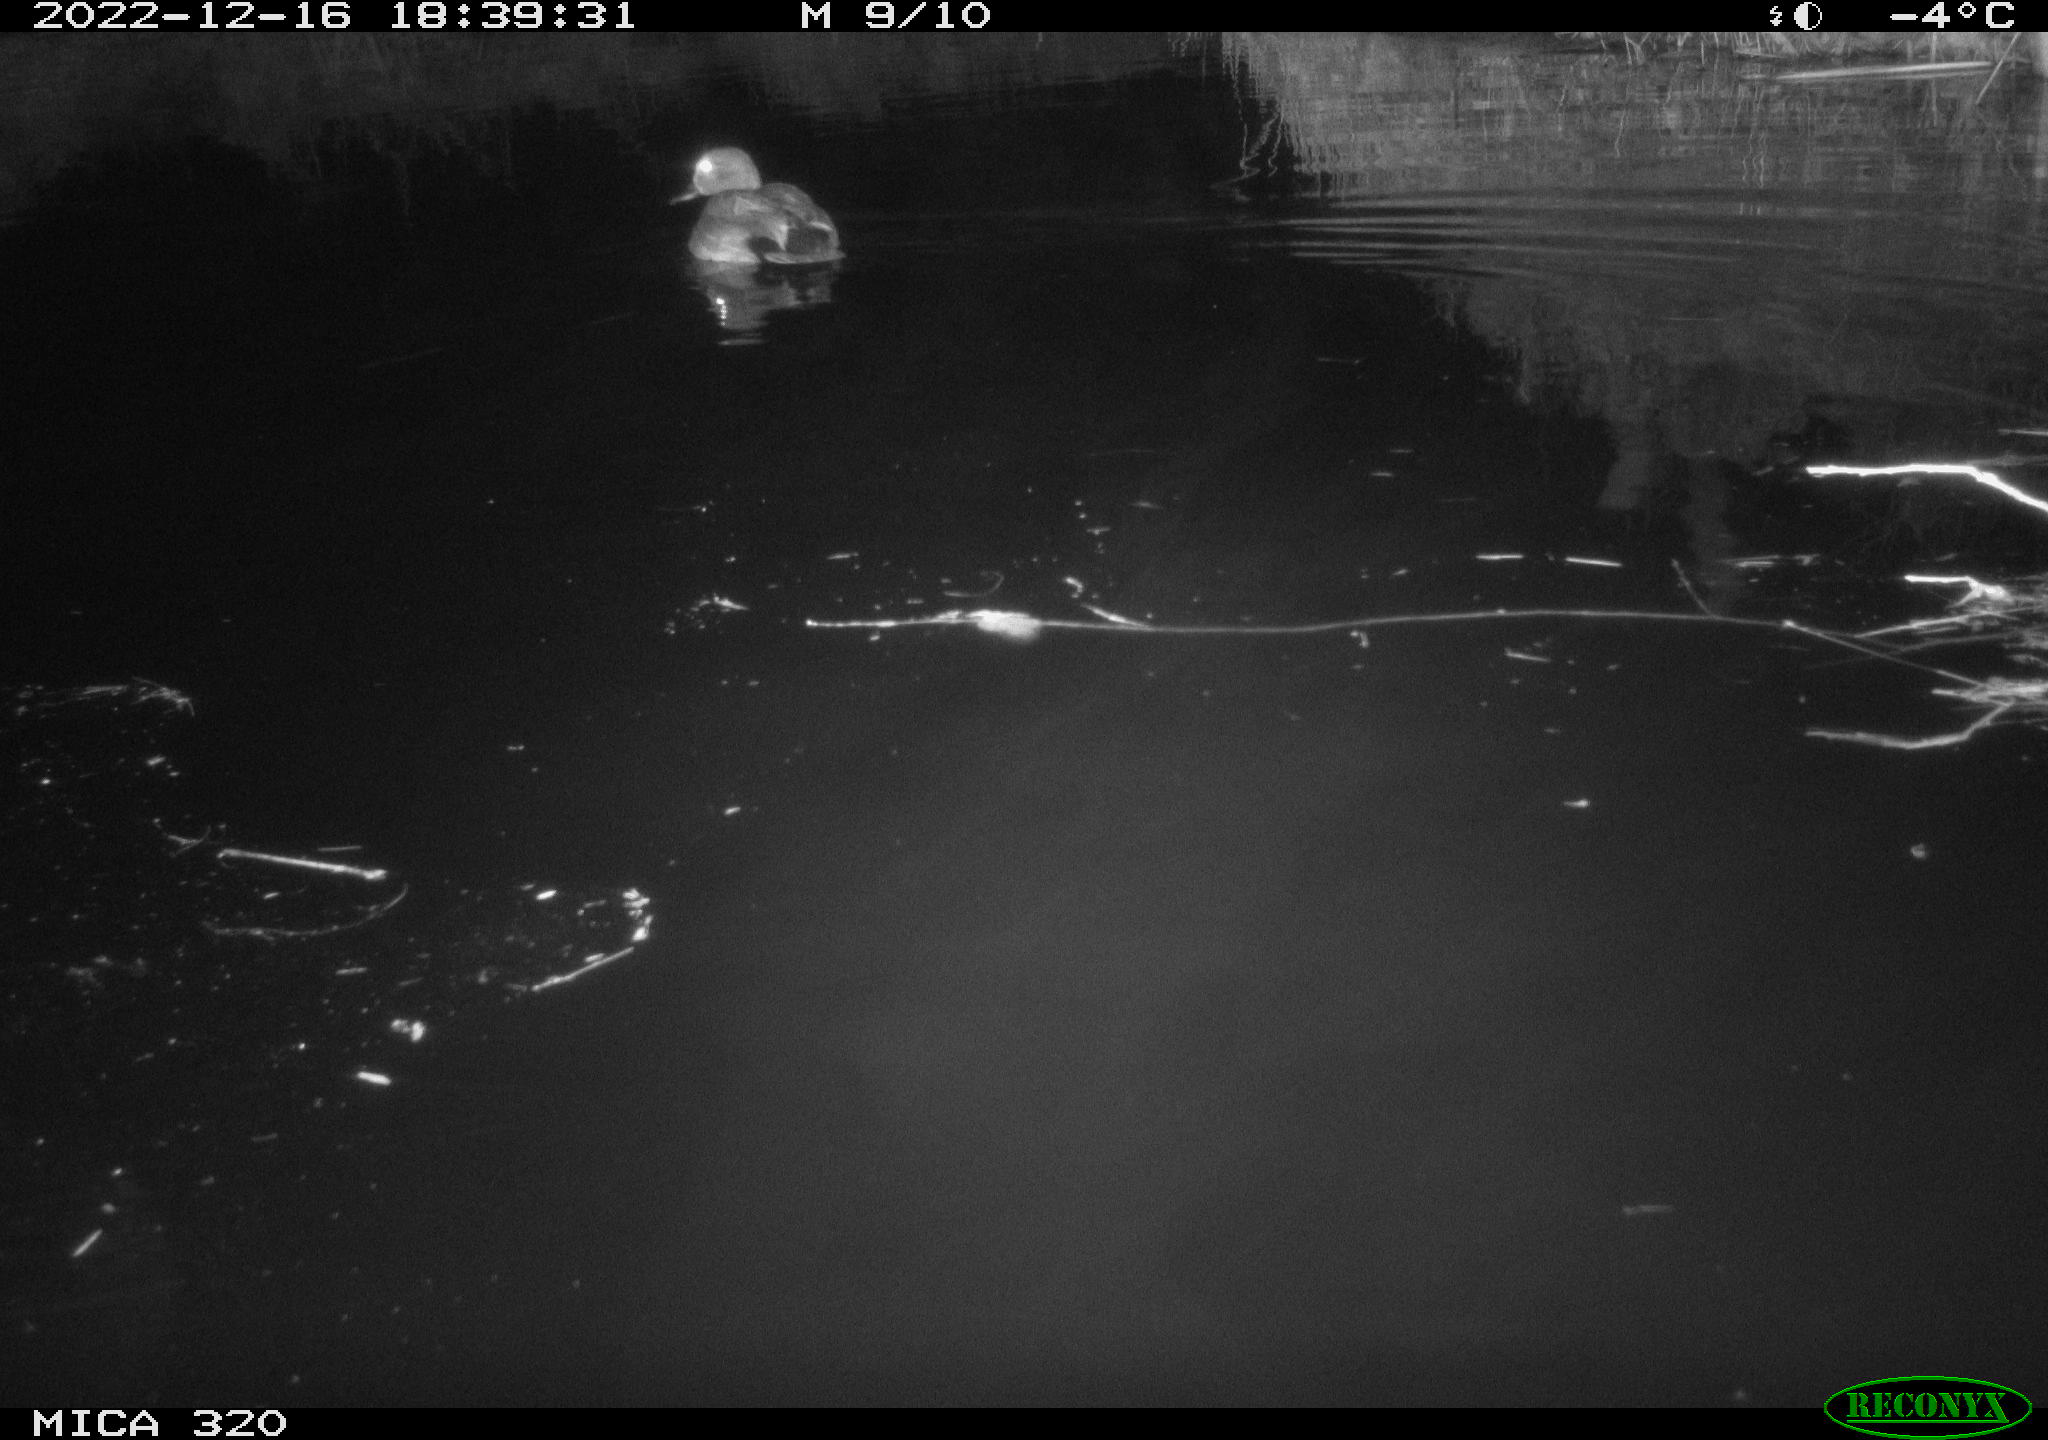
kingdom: Animalia
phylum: Chordata
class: Aves
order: Anseriformes
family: Anatidae
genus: Anas
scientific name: Anas
